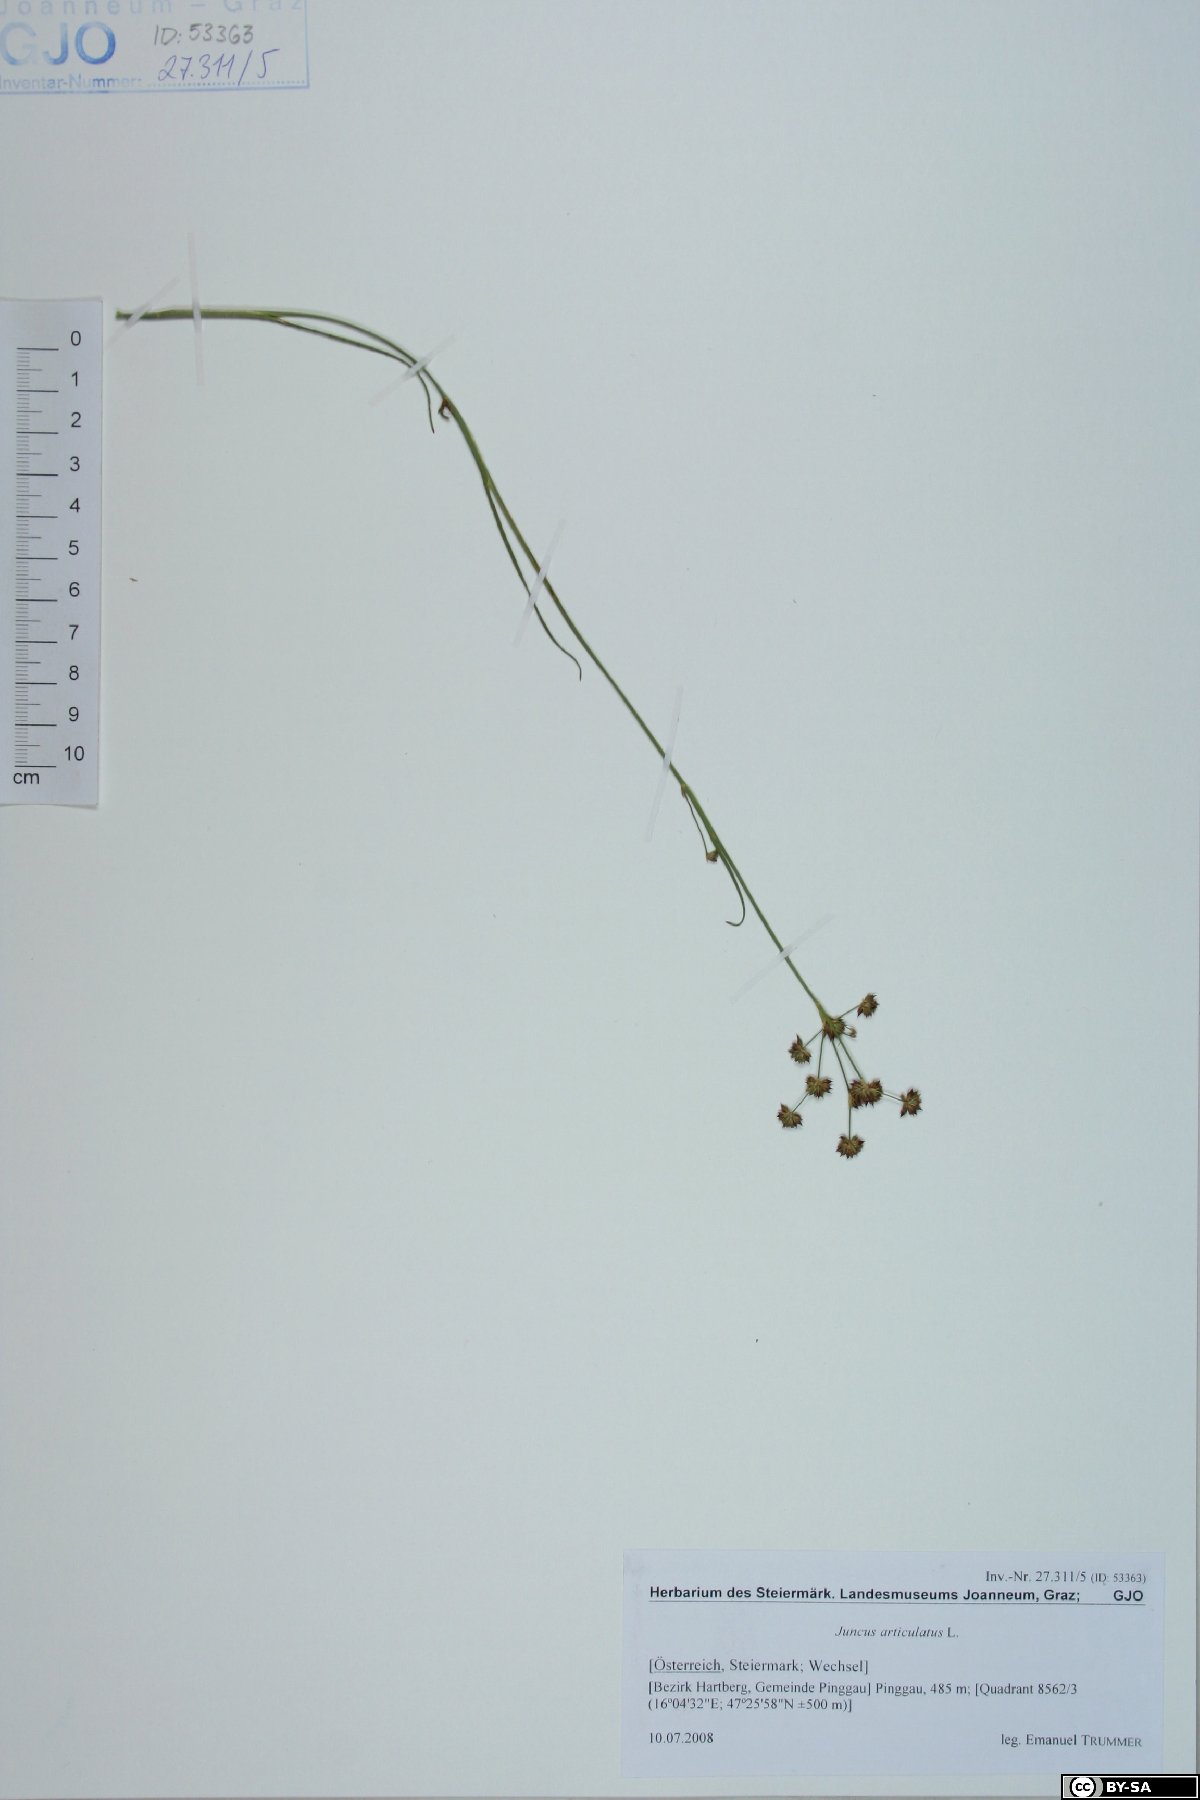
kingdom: Plantae
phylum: Tracheophyta
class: Liliopsida
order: Poales
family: Juncaceae
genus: Juncus
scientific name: Juncus articulatus
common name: Jointed rush
